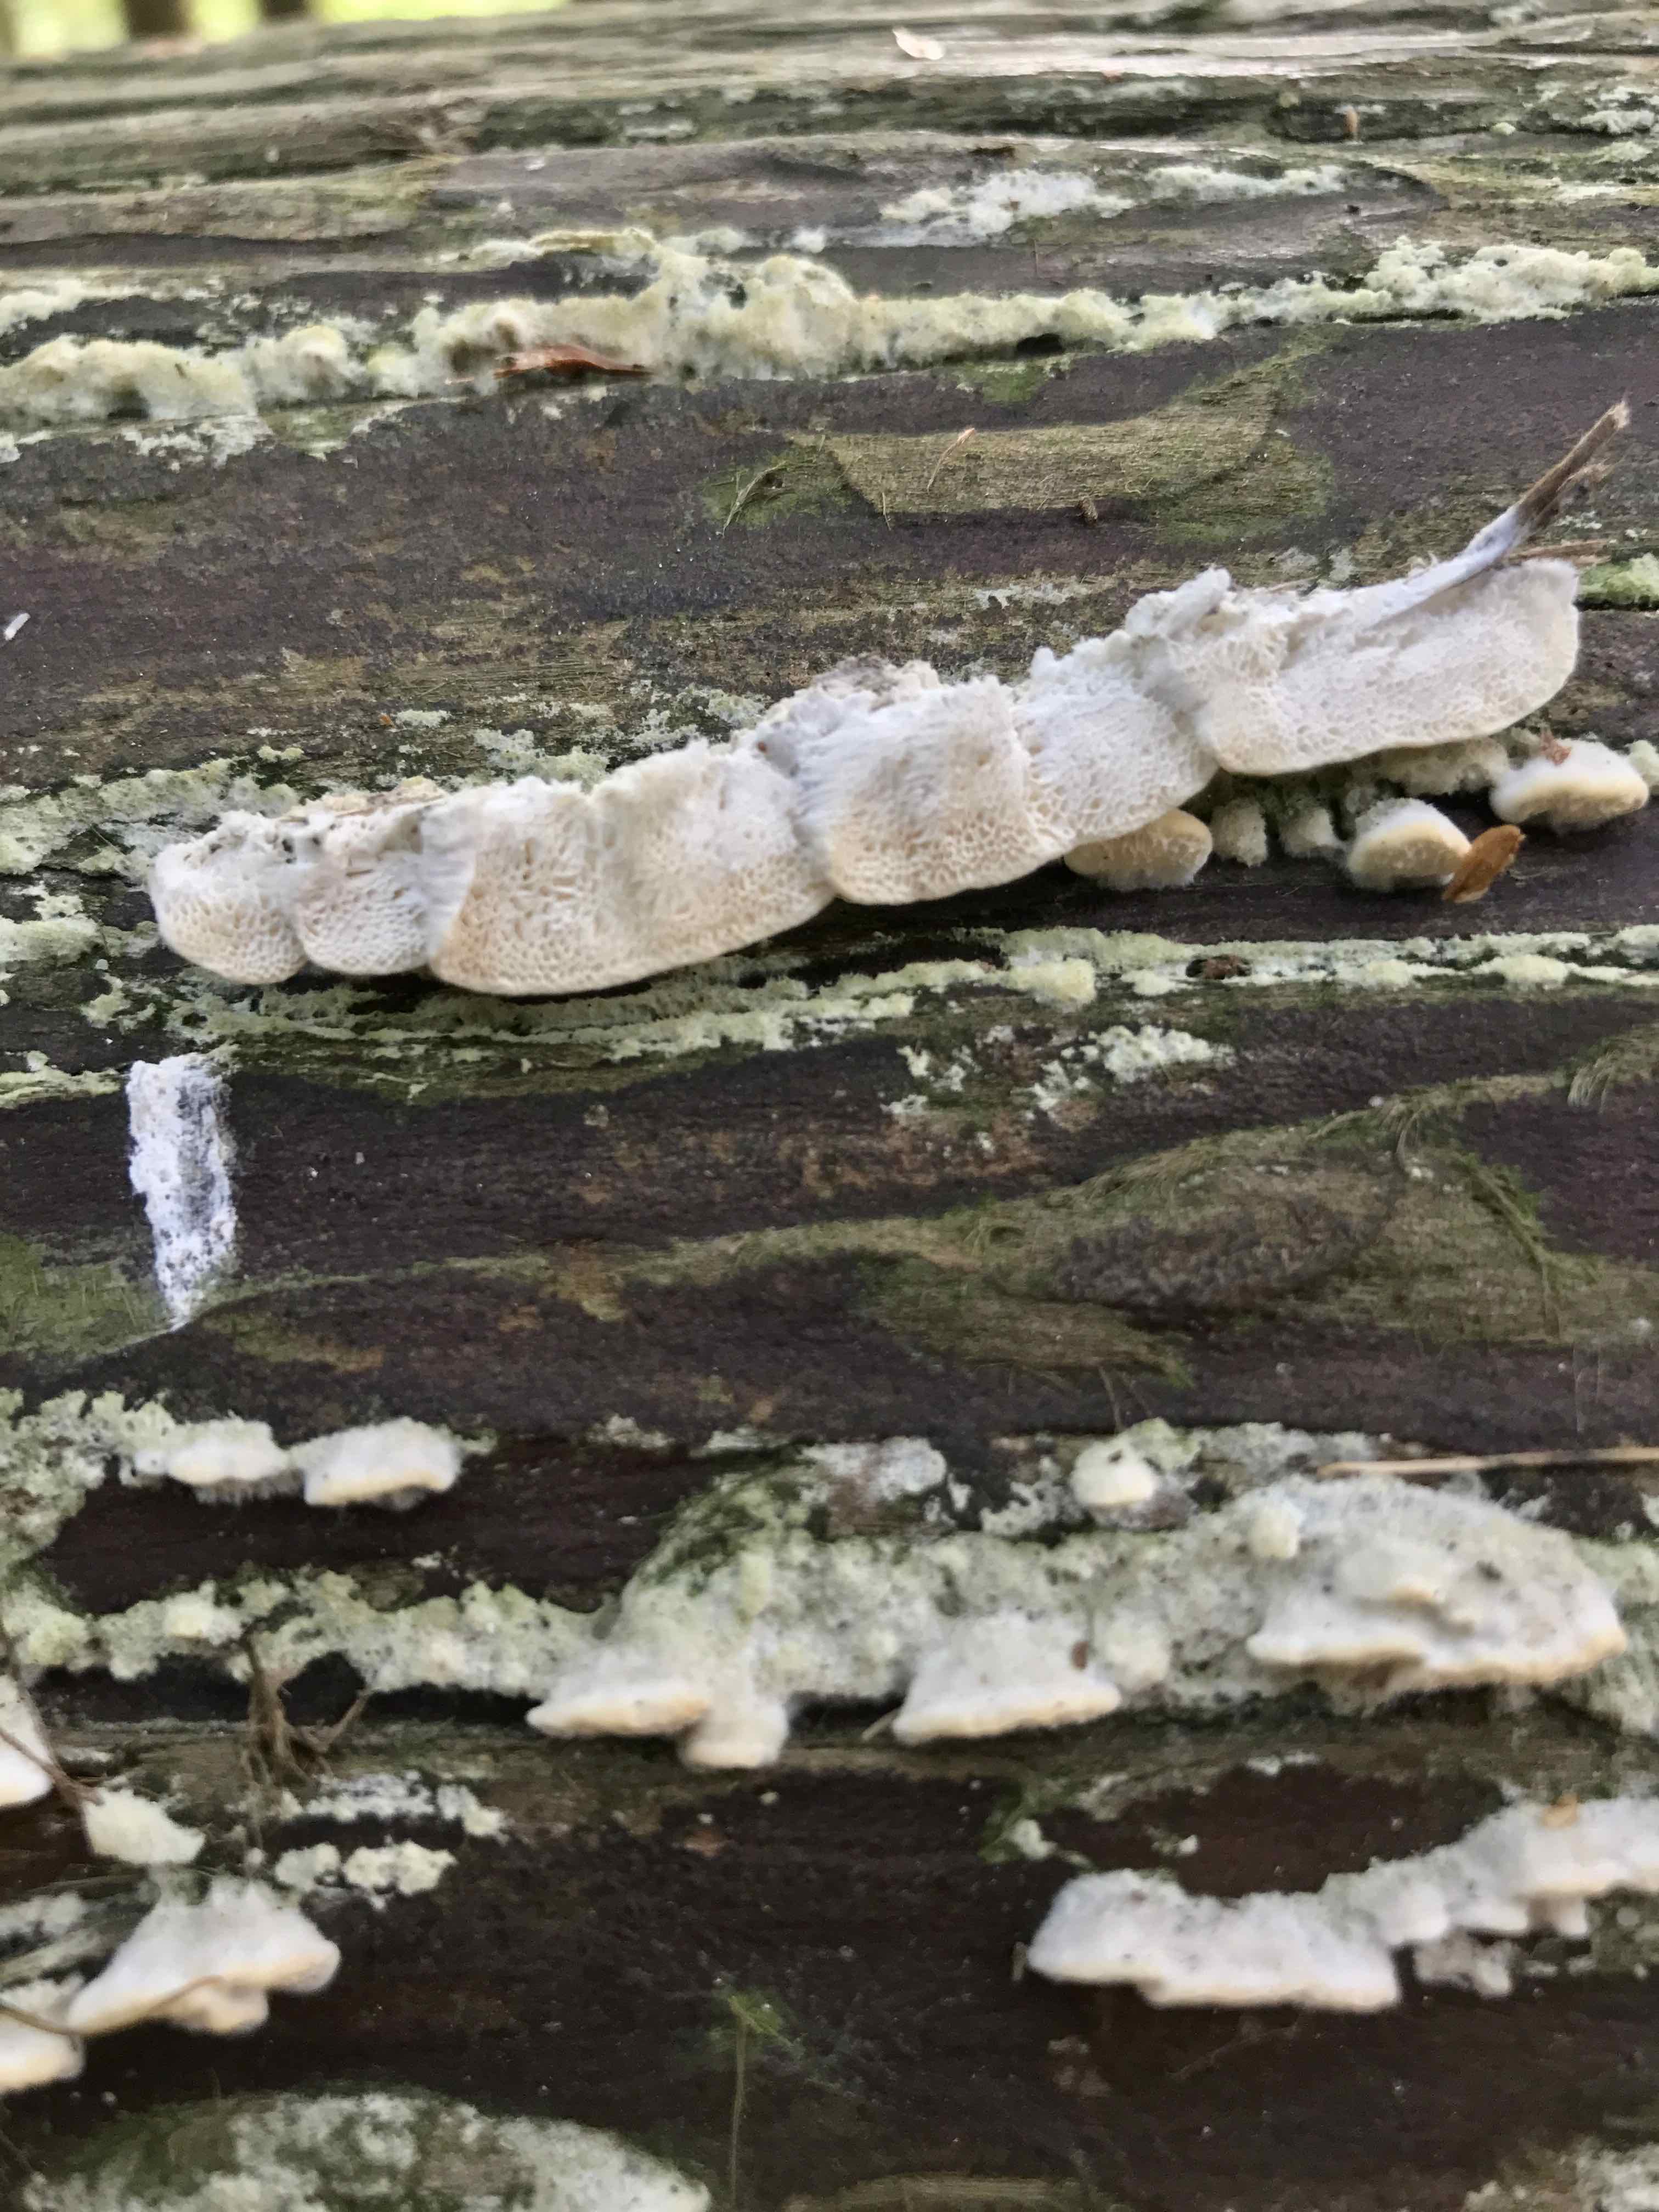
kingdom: Fungi
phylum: Basidiomycota
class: Agaricomycetes
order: Polyporales
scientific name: Polyporales
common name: poresvampordenen
